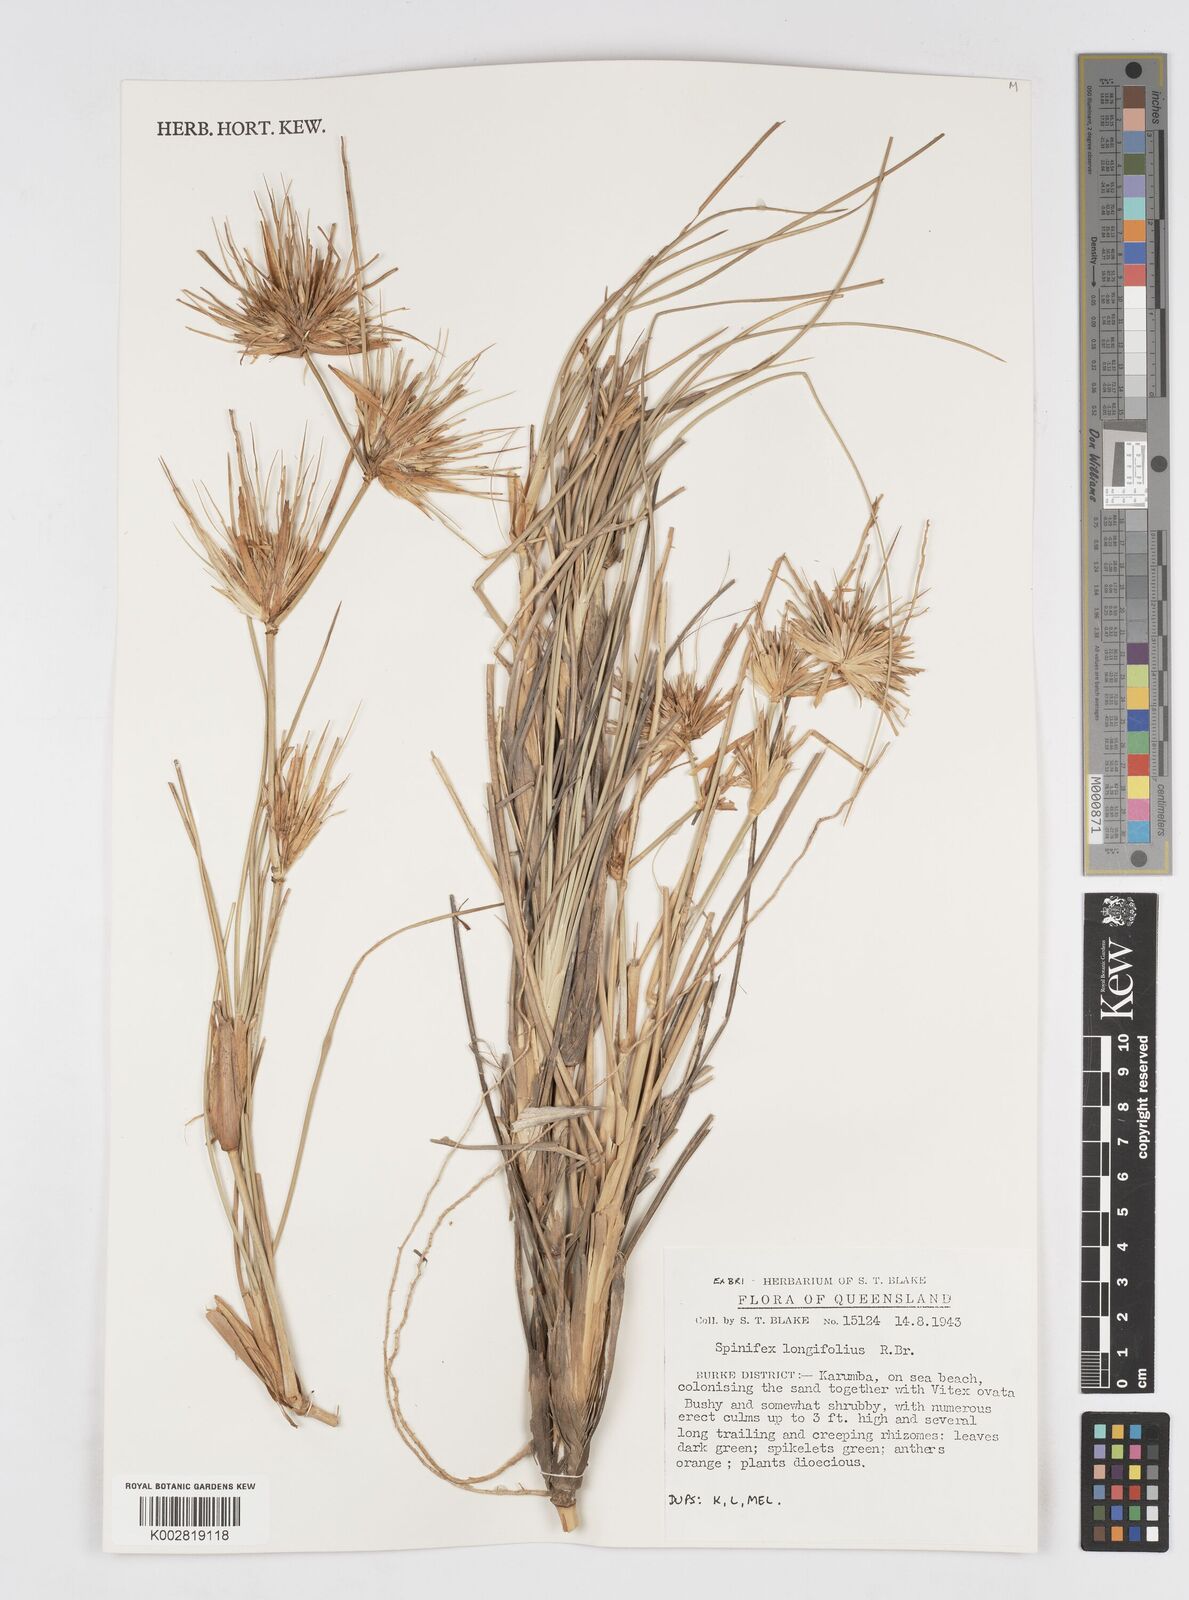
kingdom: Plantae
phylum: Tracheophyta
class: Liliopsida
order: Poales
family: Poaceae
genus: Spinifex
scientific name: Spinifex longifolius
